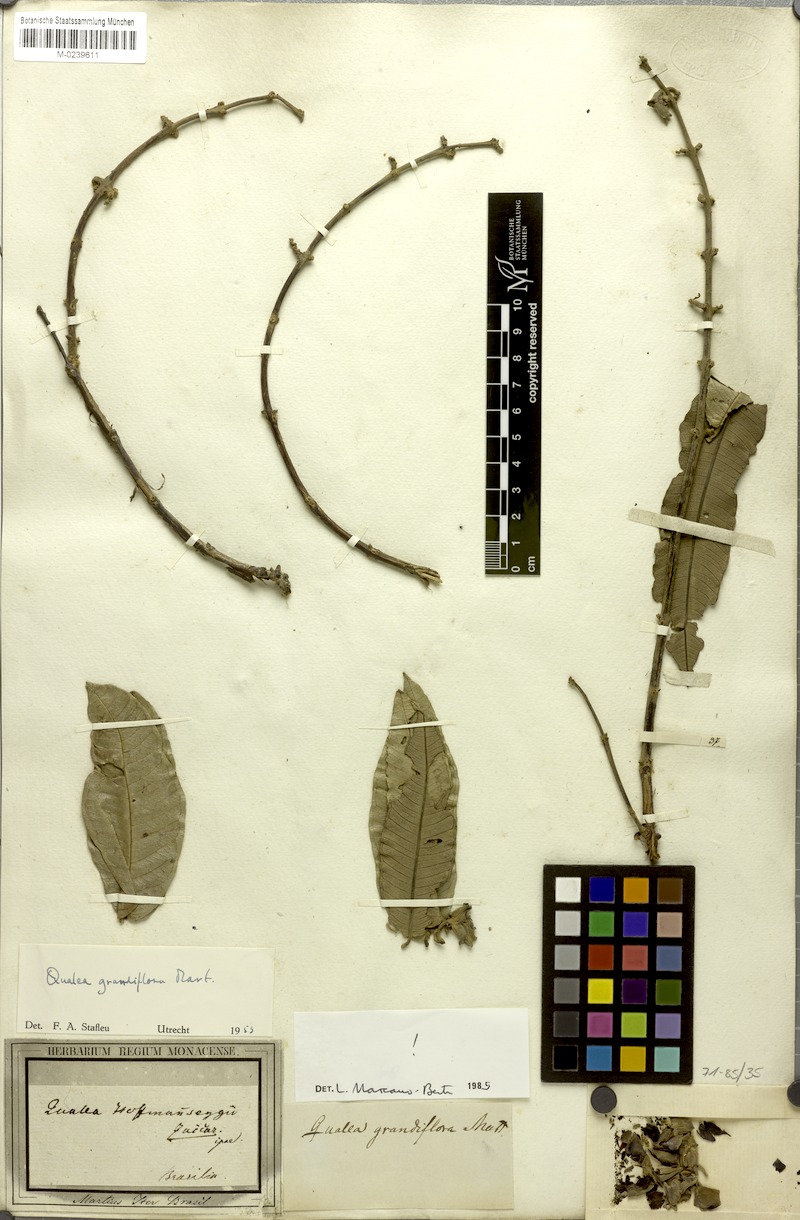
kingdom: Plantae
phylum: Tracheophyta
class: Magnoliopsida
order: Myrtales
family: Vochysiaceae
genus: Qualea
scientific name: Qualea grandiflora
